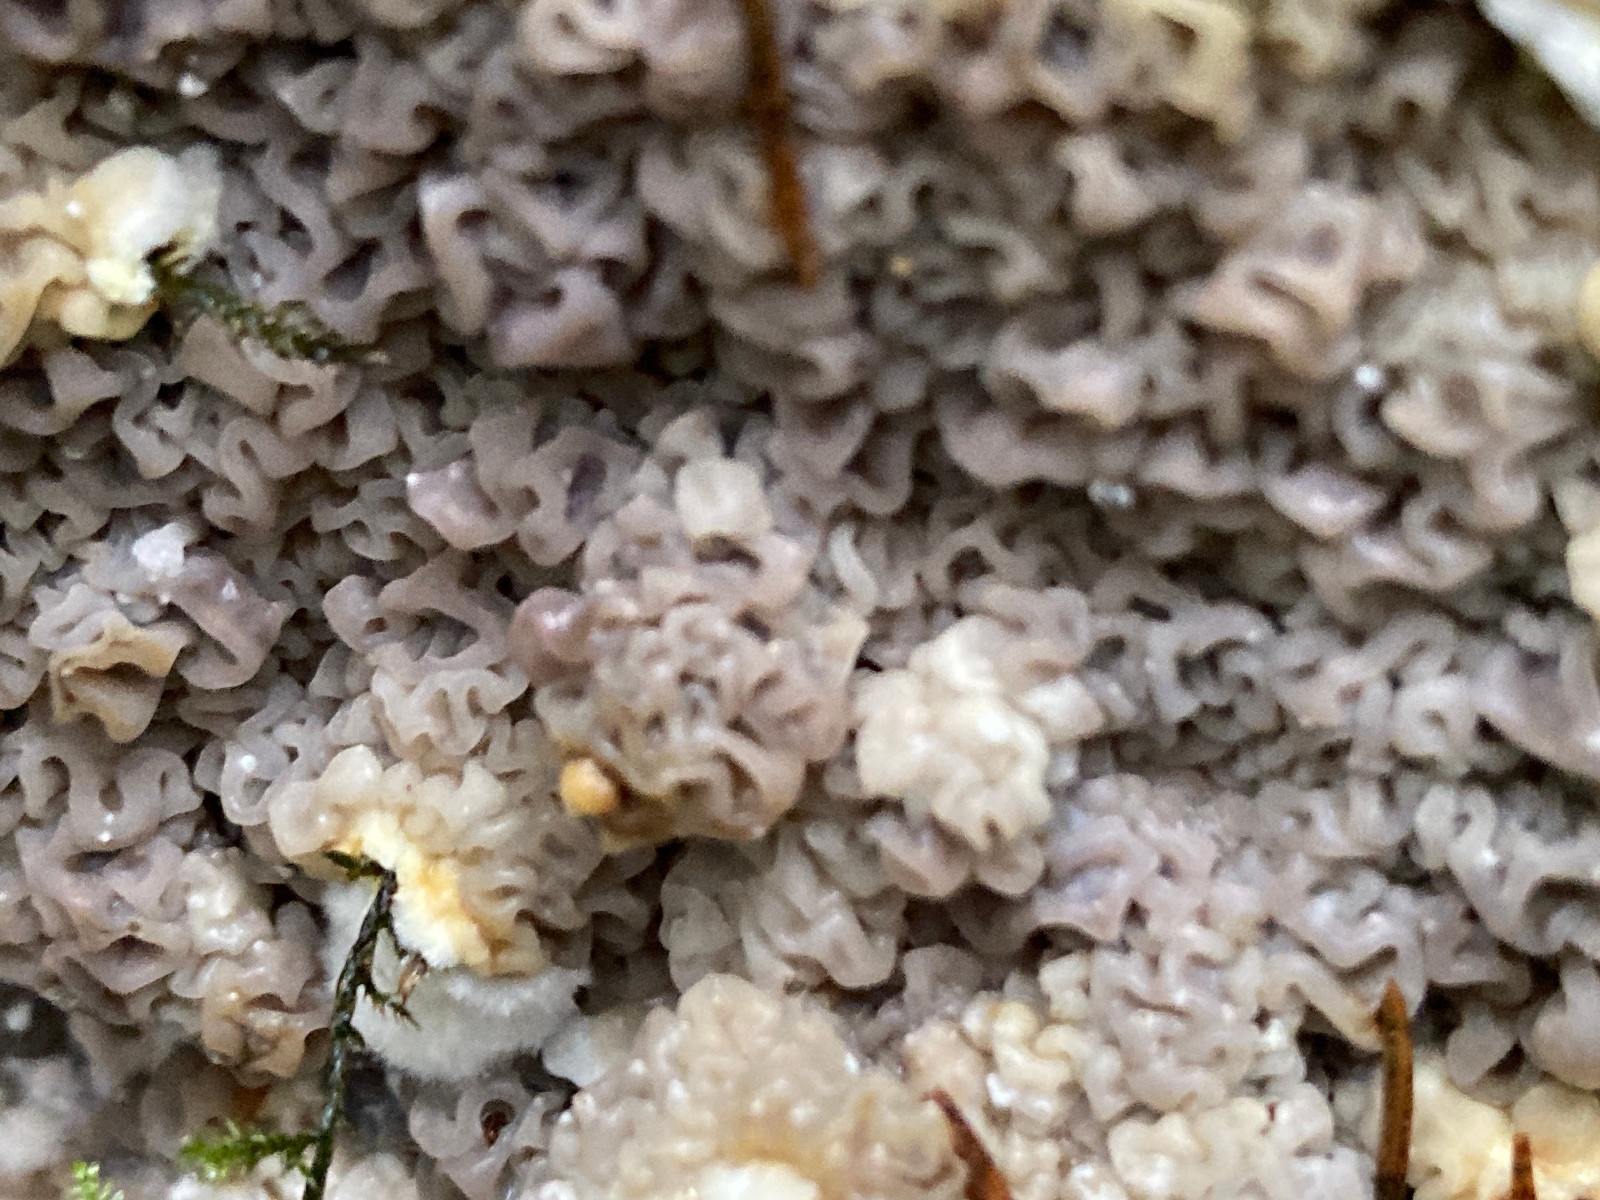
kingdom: Fungi
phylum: Basidiomycota
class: Agaricomycetes
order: Corticiales
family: Corticiaceae
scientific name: Corticiaceae
